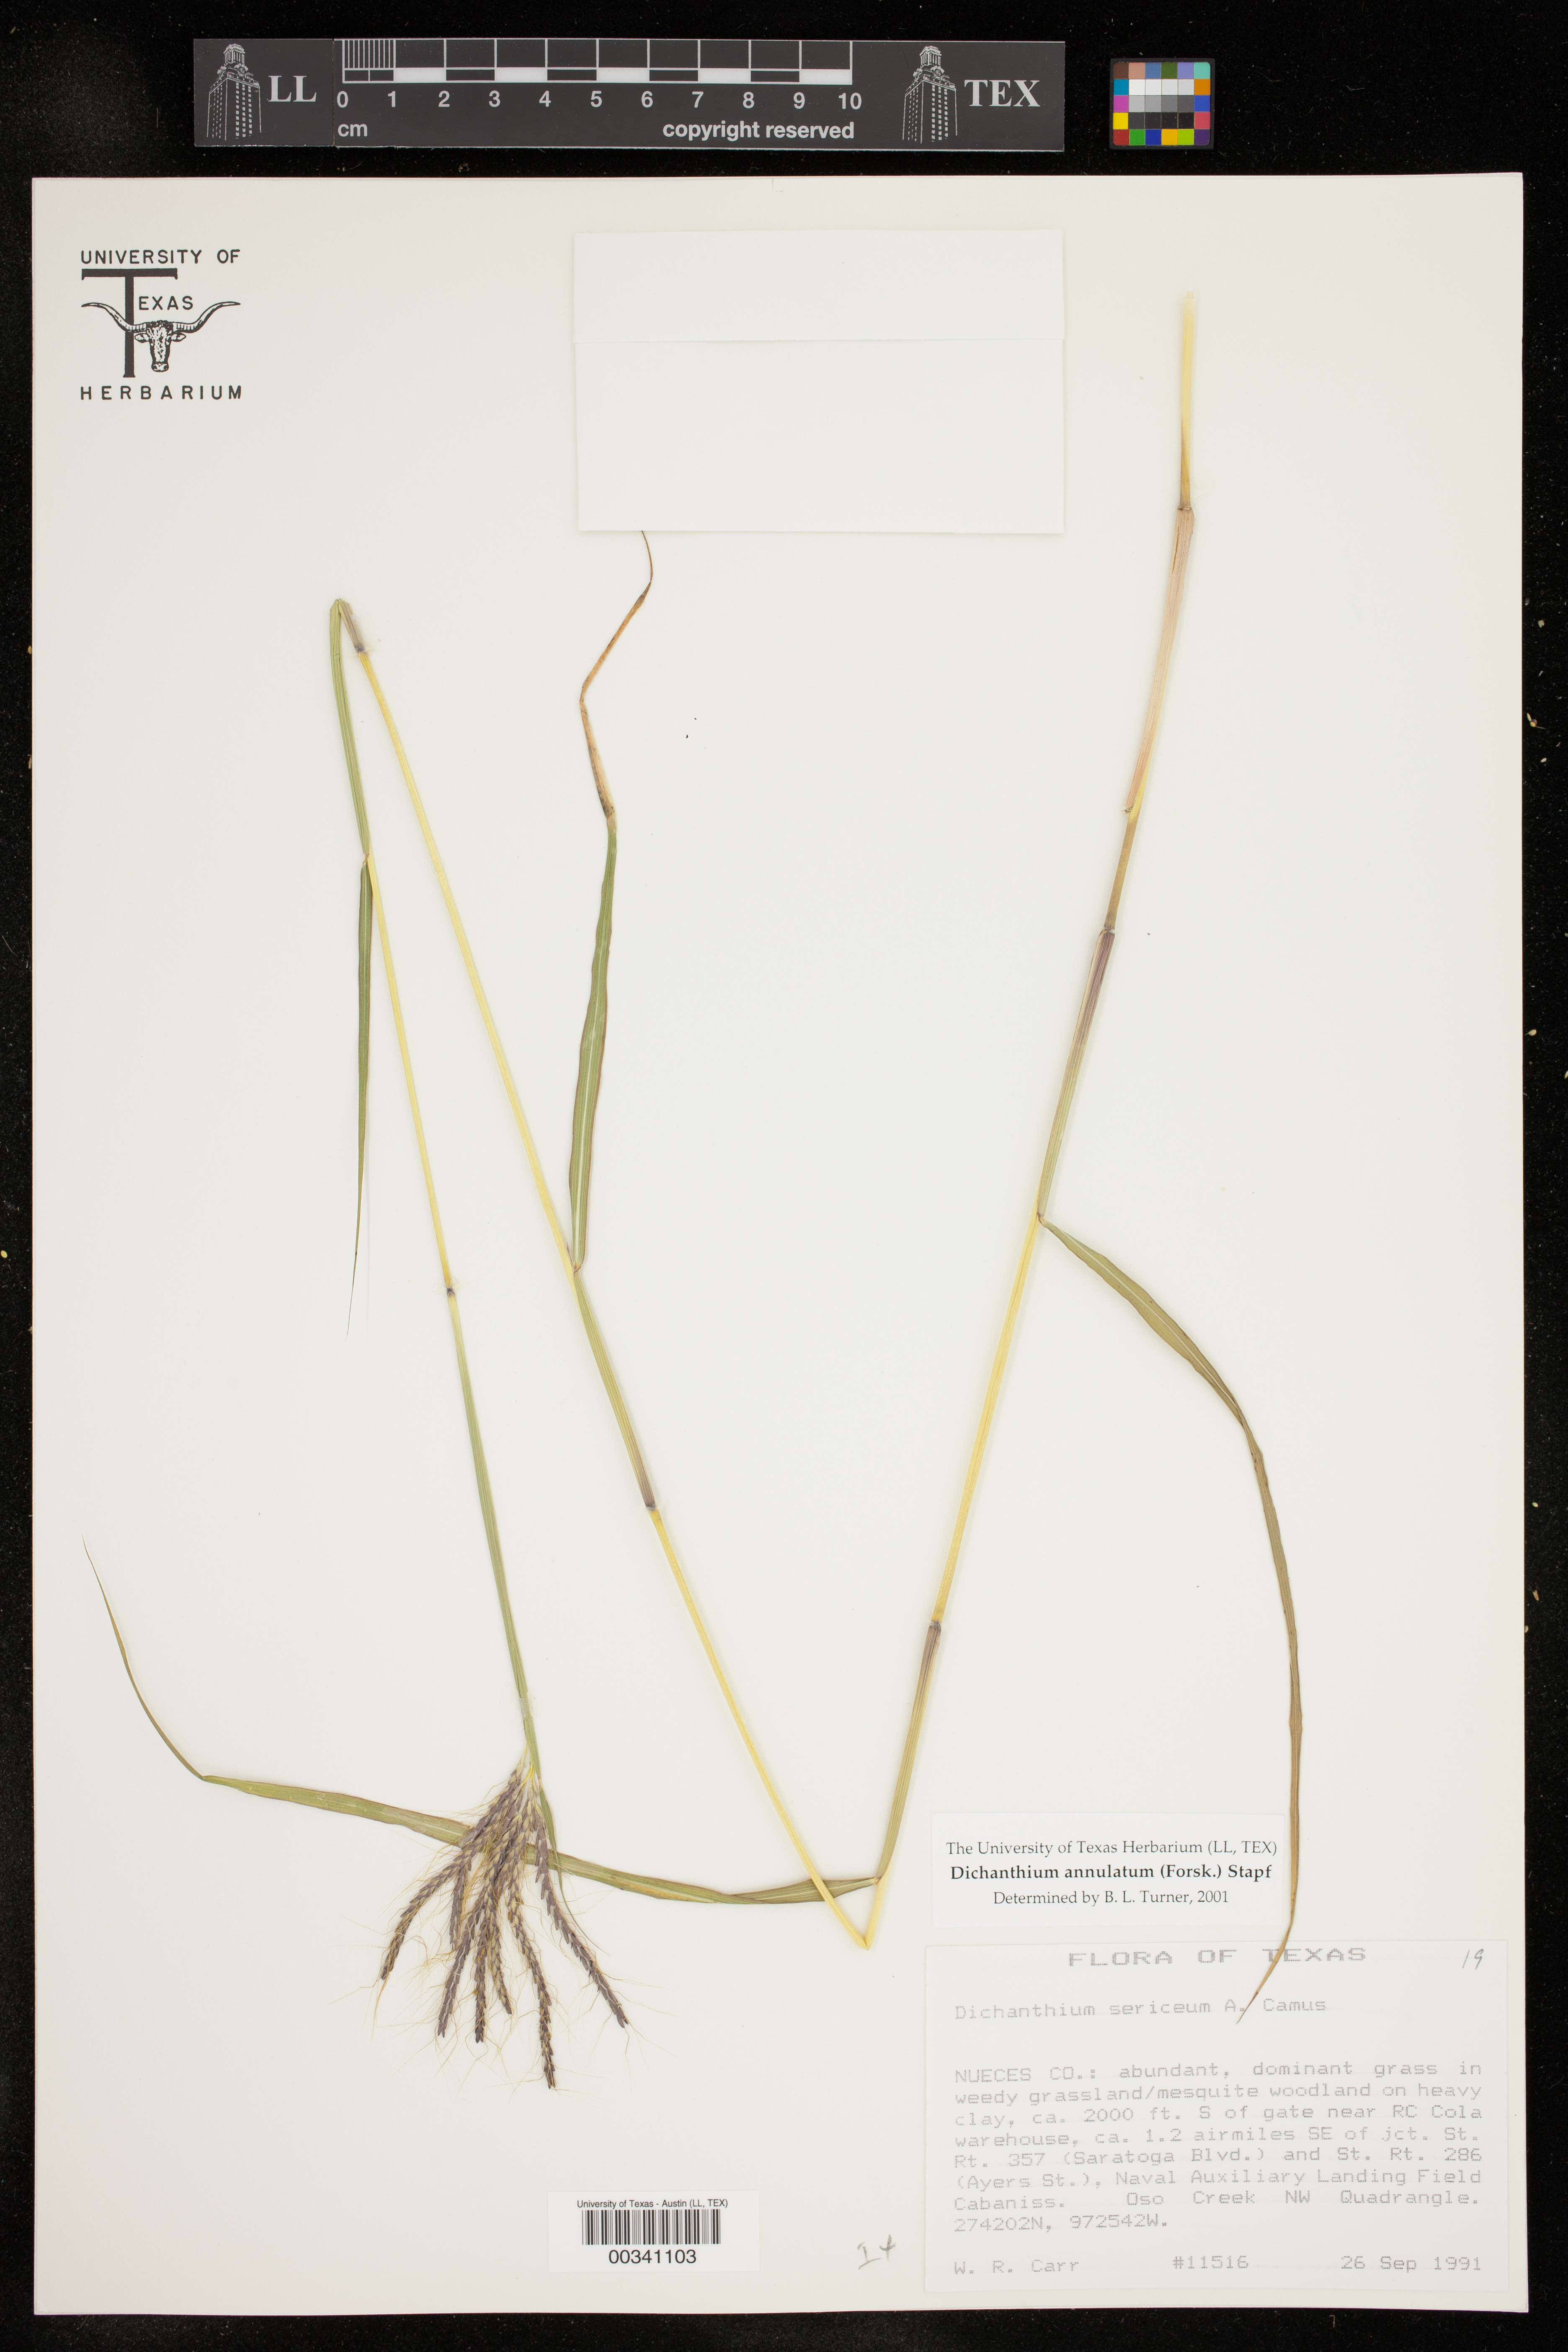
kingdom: Plantae
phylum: Tracheophyta
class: Liliopsida
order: Poales
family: Poaceae
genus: Dichanthium
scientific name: Dichanthium annulatum
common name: Kleberg's bluestem
